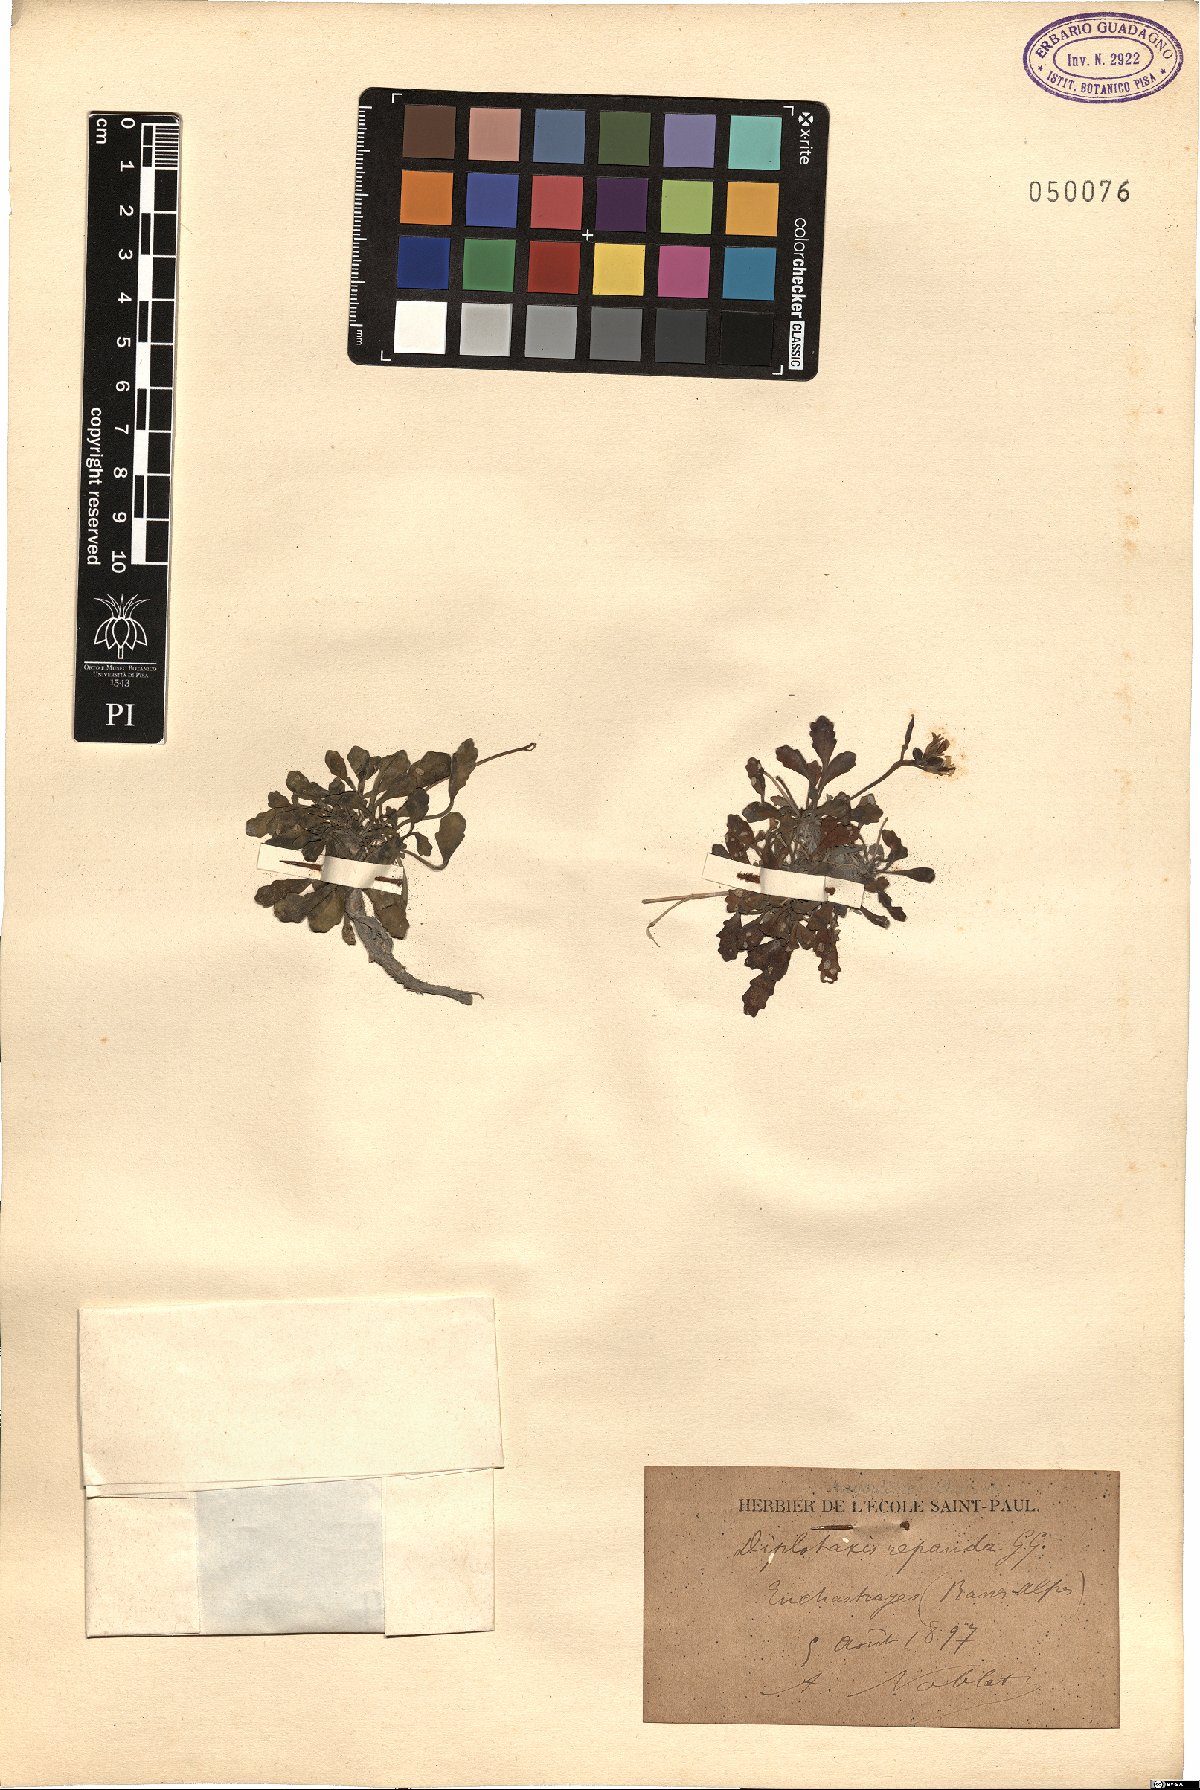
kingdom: Plantae
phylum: Tracheophyta
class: Magnoliopsida
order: Brassicales
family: Brassicaceae
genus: Brassica
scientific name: Brassica repanda
